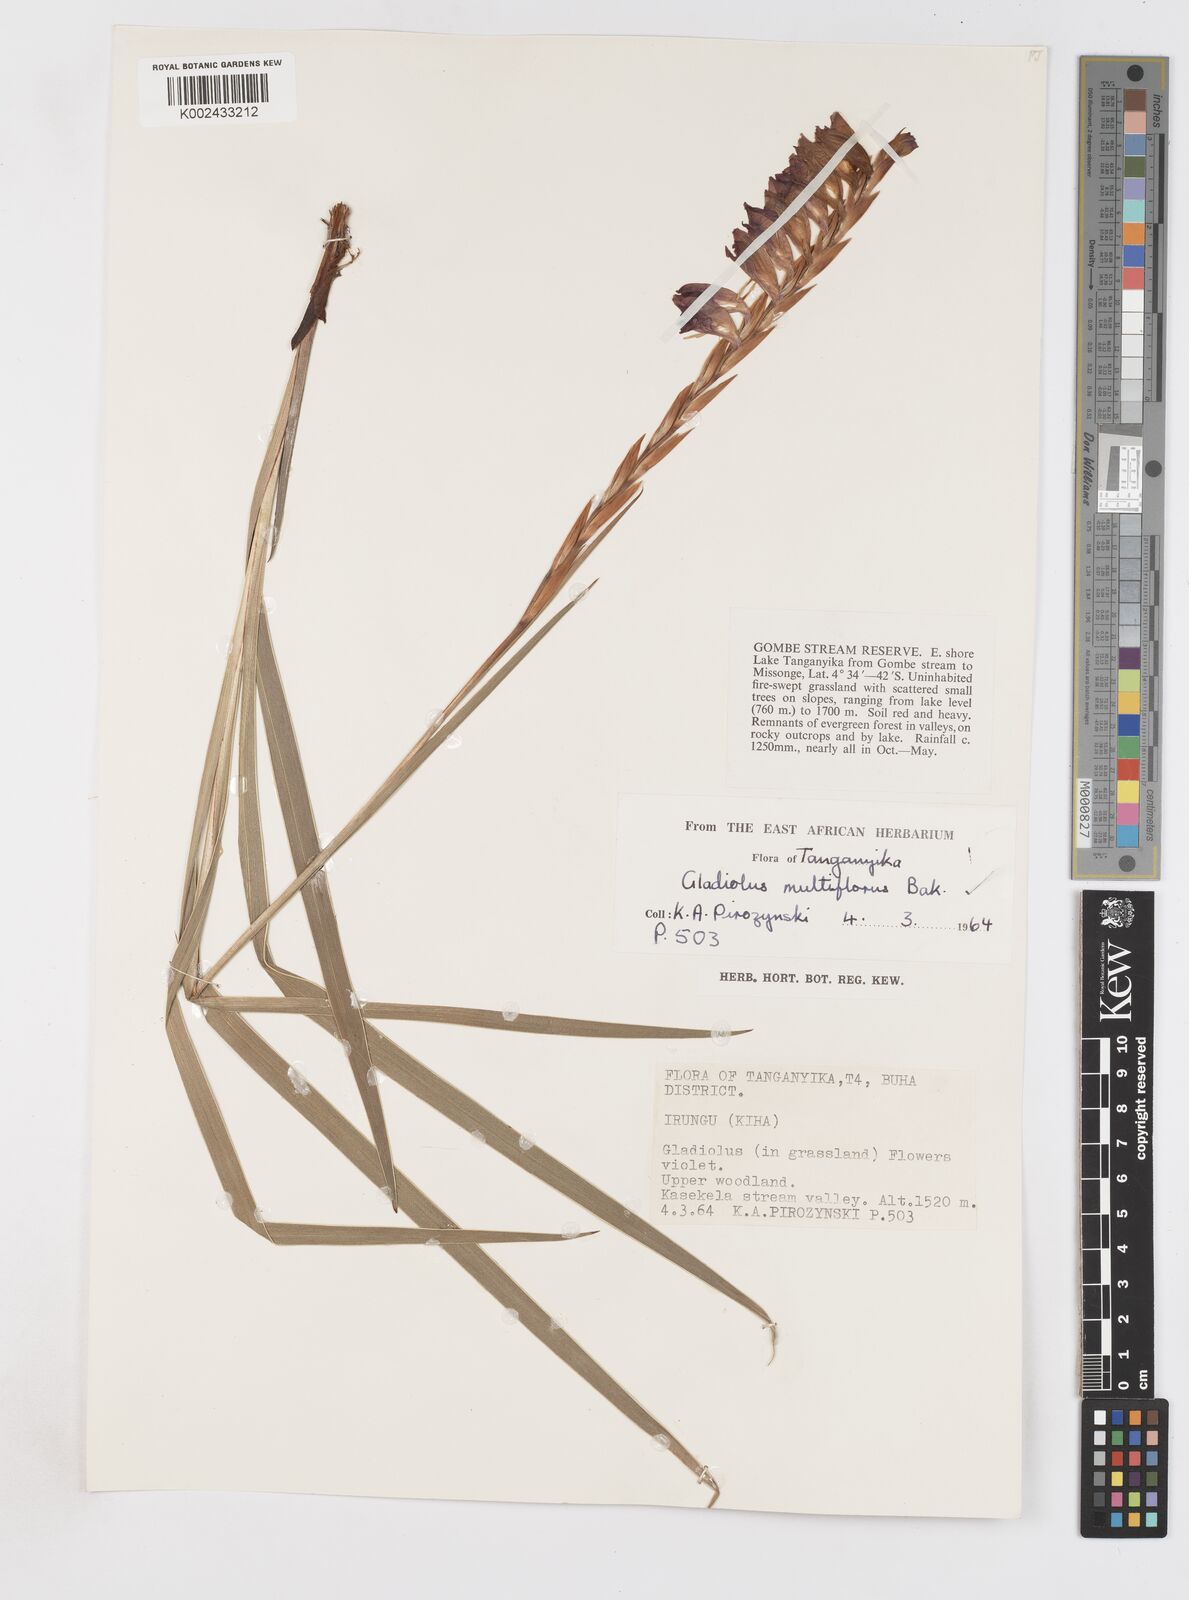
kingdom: Plantae
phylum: Tracheophyta
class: Liliopsida
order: Asparagales
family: Iridaceae
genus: Gladiolus
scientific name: Gladiolus gregarius
